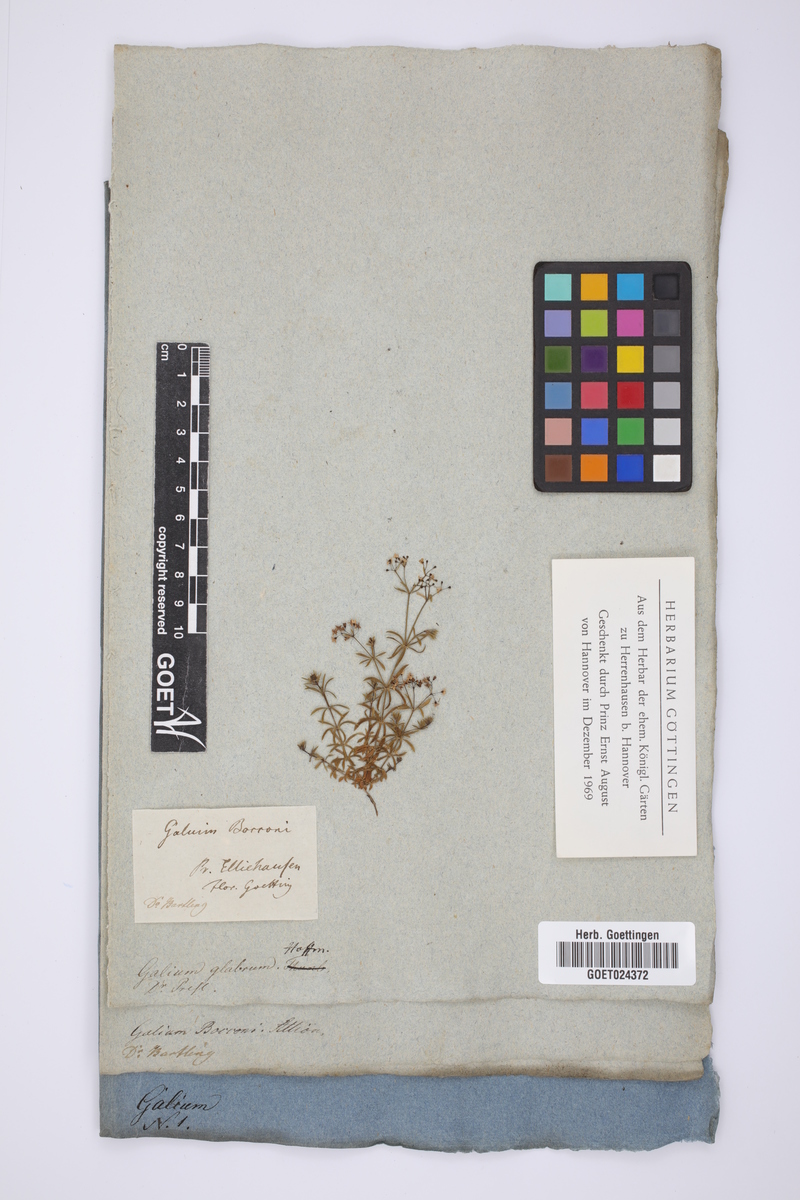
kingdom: Plantae
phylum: Tracheophyta
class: Magnoliopsida
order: Gentianales
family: Rubiaceae
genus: Galium
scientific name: Galium anisophyllon
